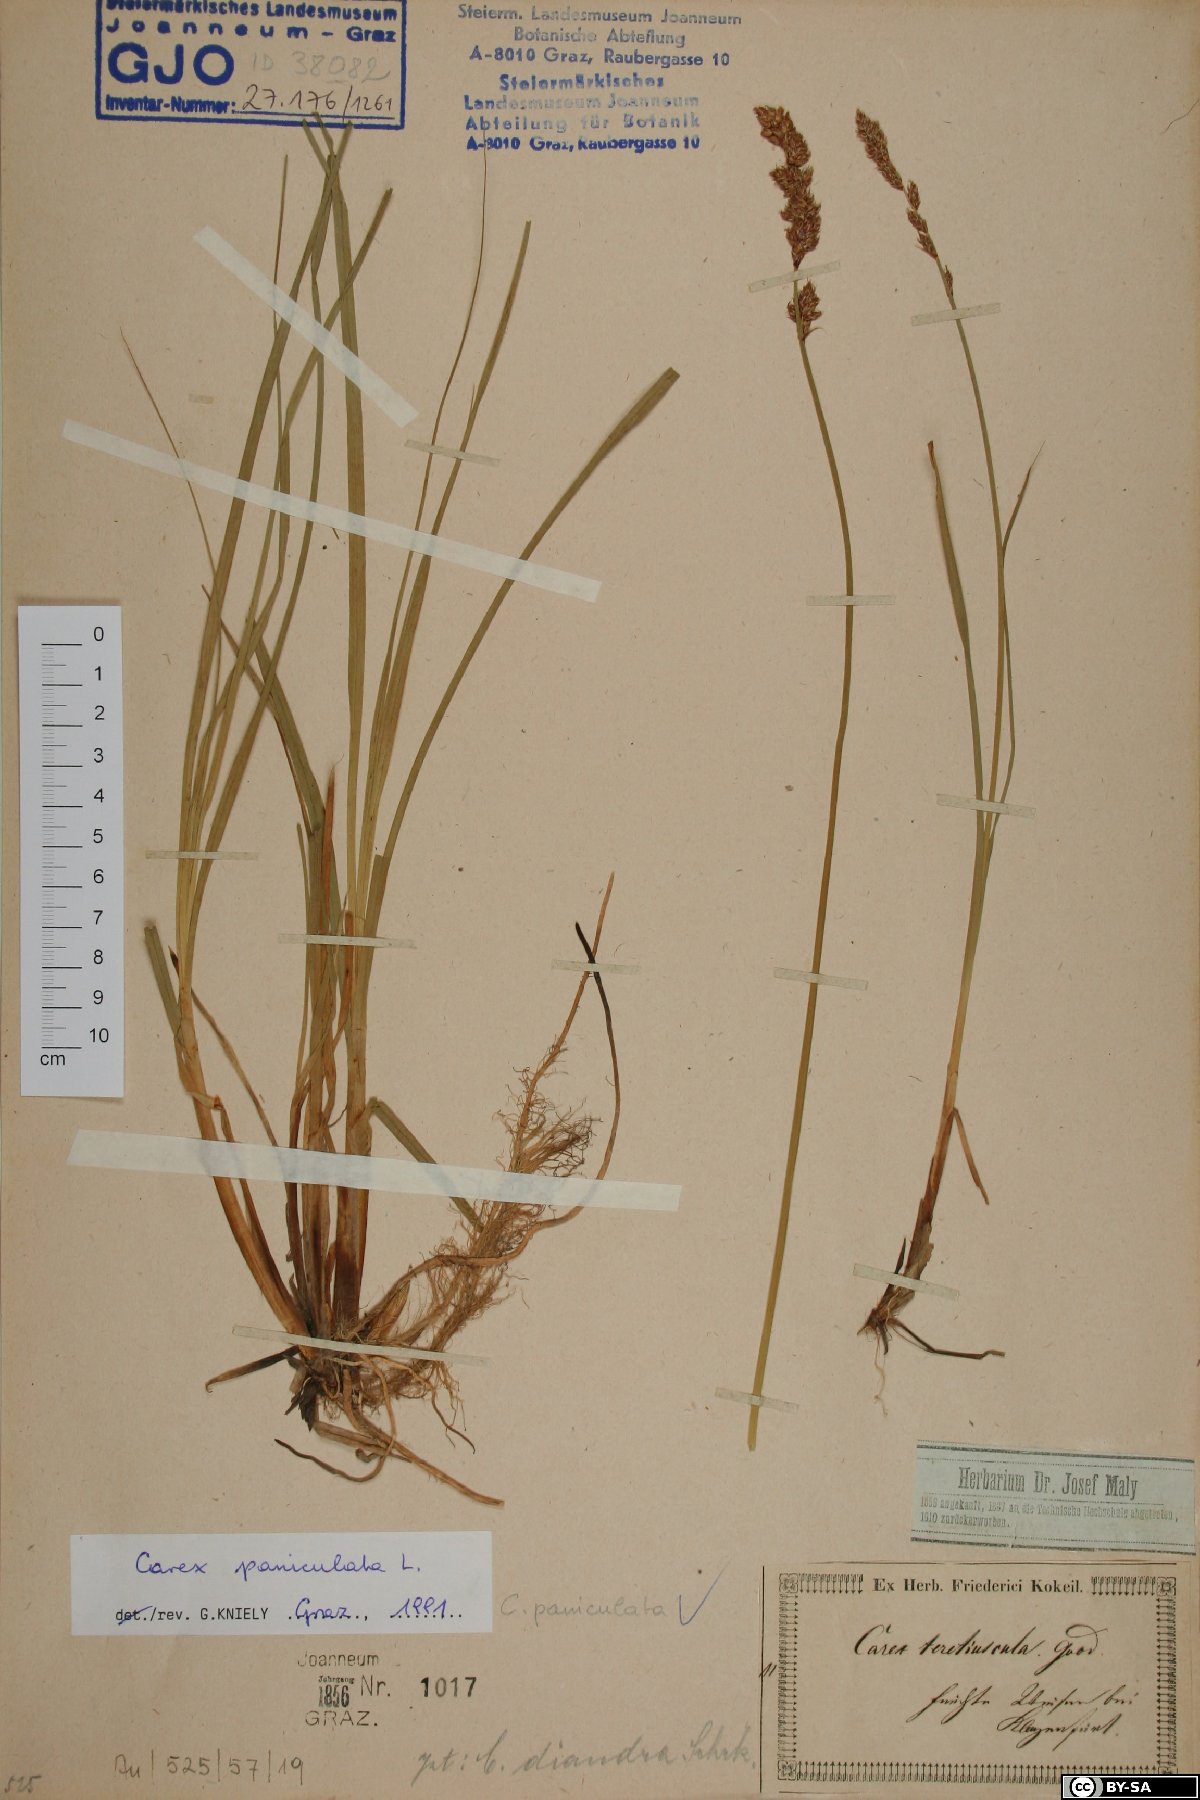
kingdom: Plantae
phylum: Tracheophyta
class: Liliopsida
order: Poales
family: Cyperaceae
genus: Carex
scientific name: Carex paniculata
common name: Greater tussock-sedge
